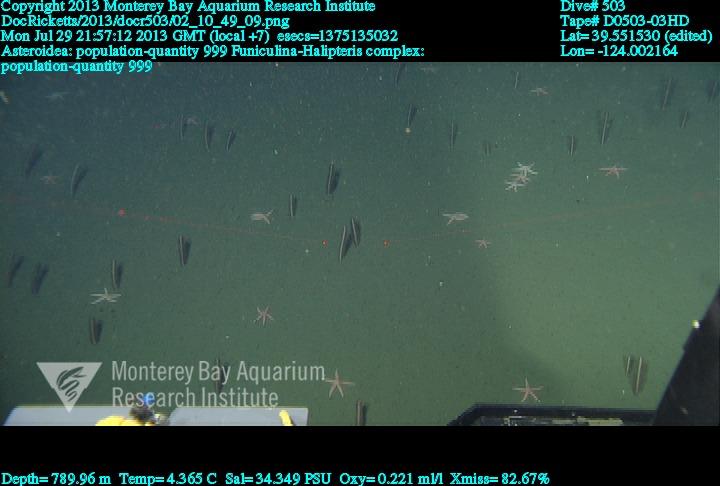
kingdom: Animalia
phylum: Cnidaria
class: Anthozoa
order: Scleralcyonacea
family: Funiculinidae
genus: Funiculina
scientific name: Funiculina
